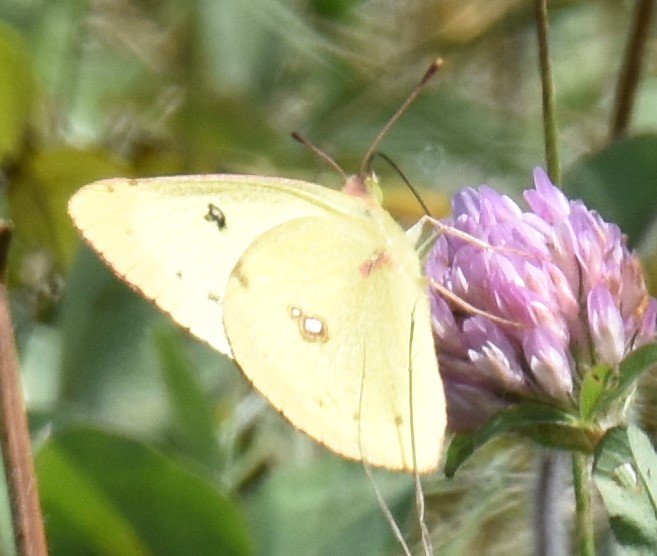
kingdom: Animalia
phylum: Arthropoda
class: Insecta
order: Lepidoptera
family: Pieridae
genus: Colias
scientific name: Colias philodice
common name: Clouded Sulphur
